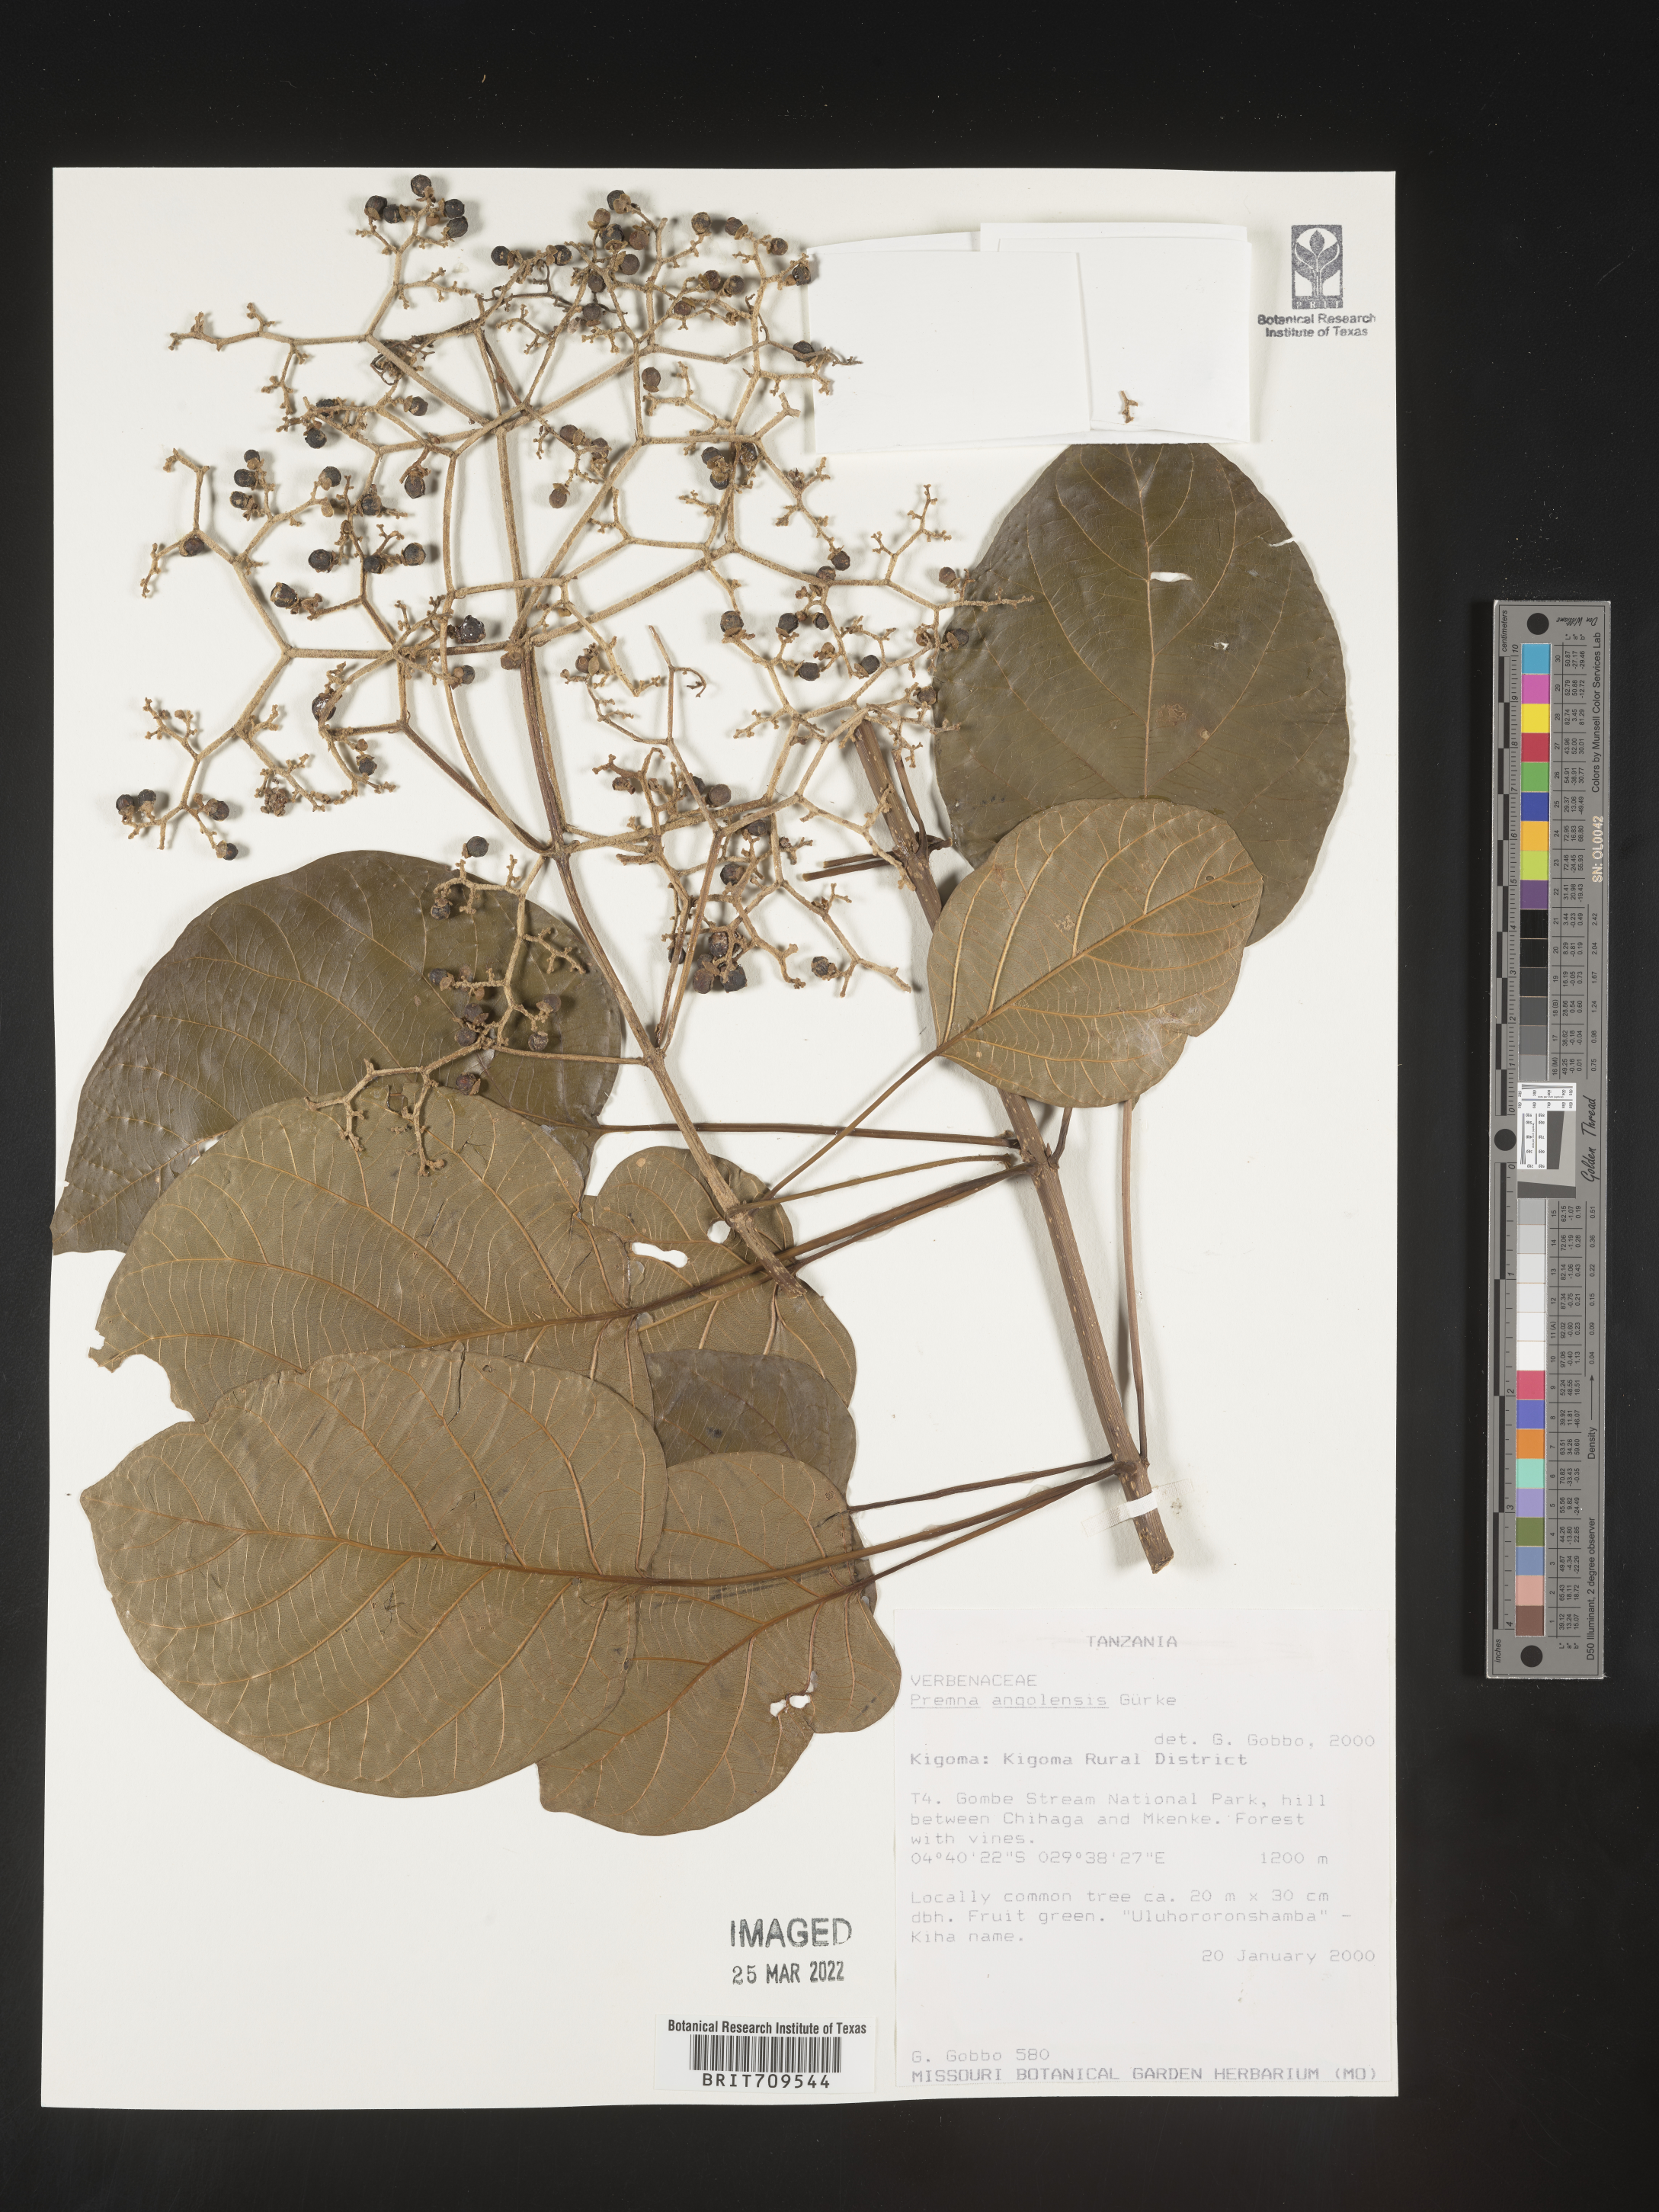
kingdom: Plantae
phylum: Tracheophyta
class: Magnoliopsida
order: Lamiales
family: Lamiaceae
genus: Premna
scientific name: Premna
